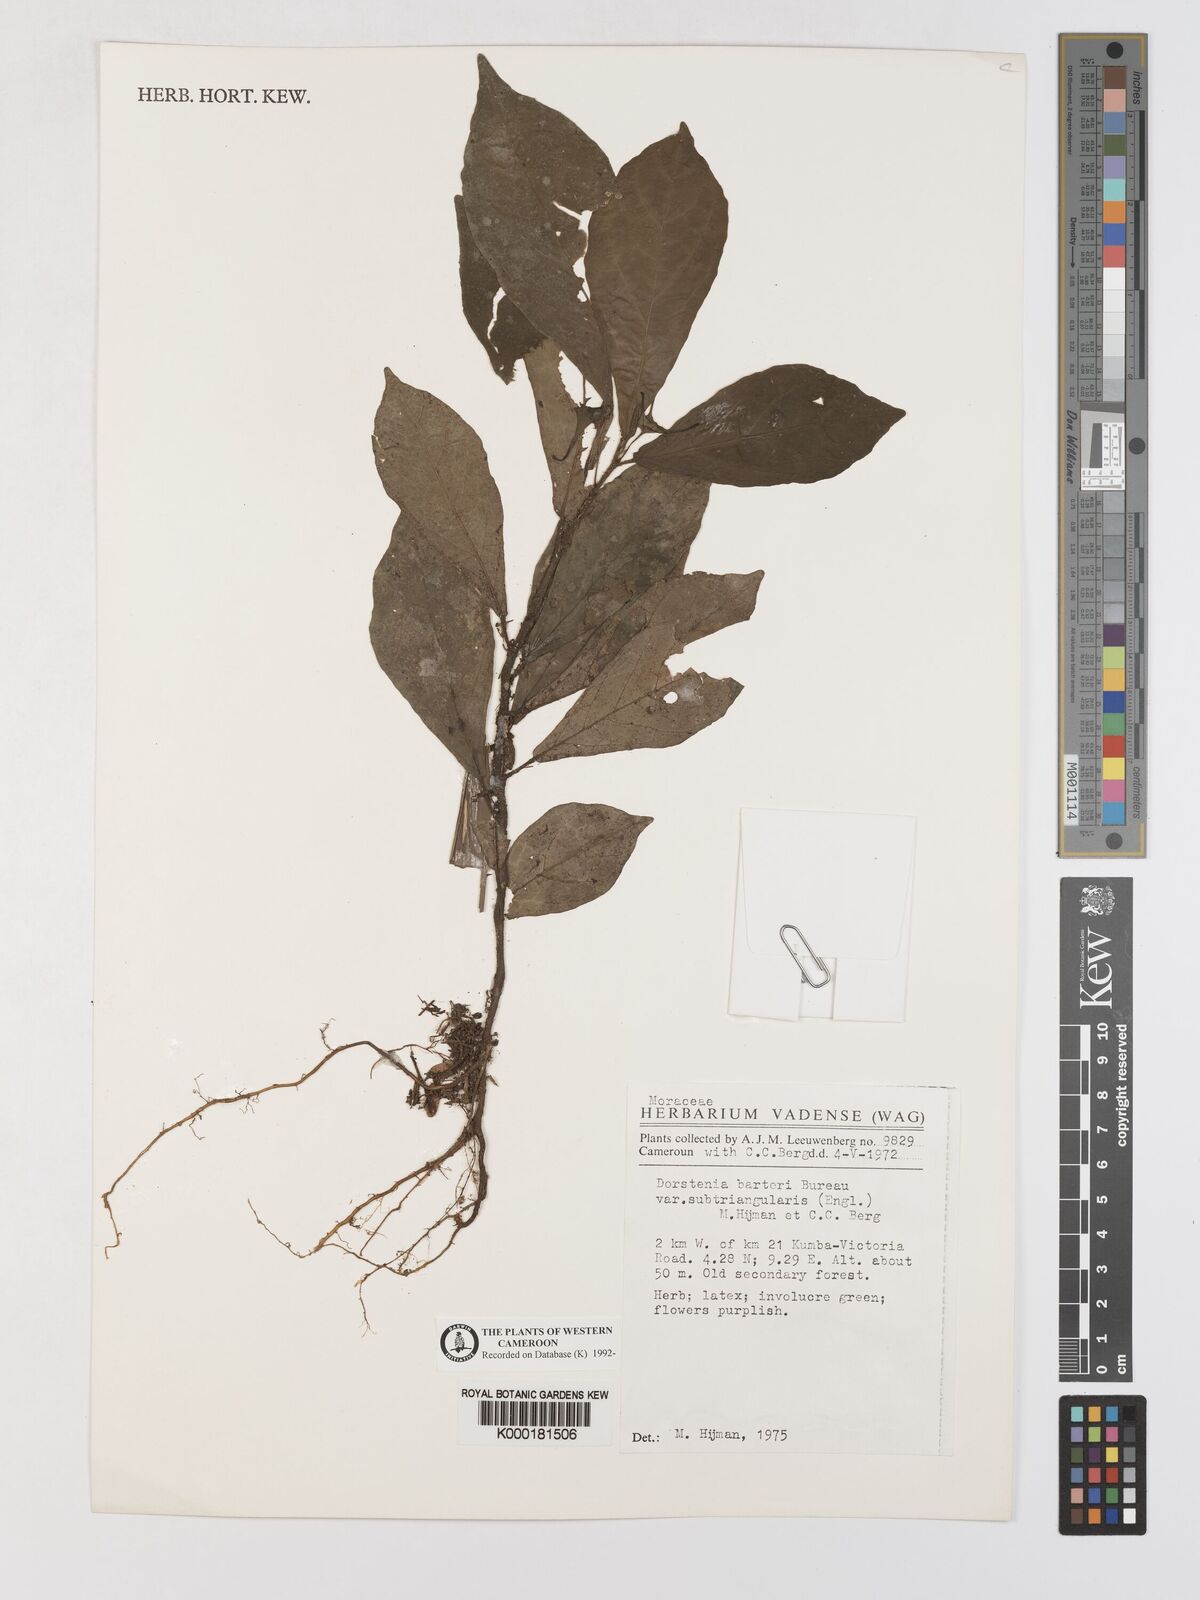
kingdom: Plantae
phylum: Tracheophyta
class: Magnoliopsida
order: Rosales
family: Moraceae
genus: Dorstenia
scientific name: Dorstenia barteri
